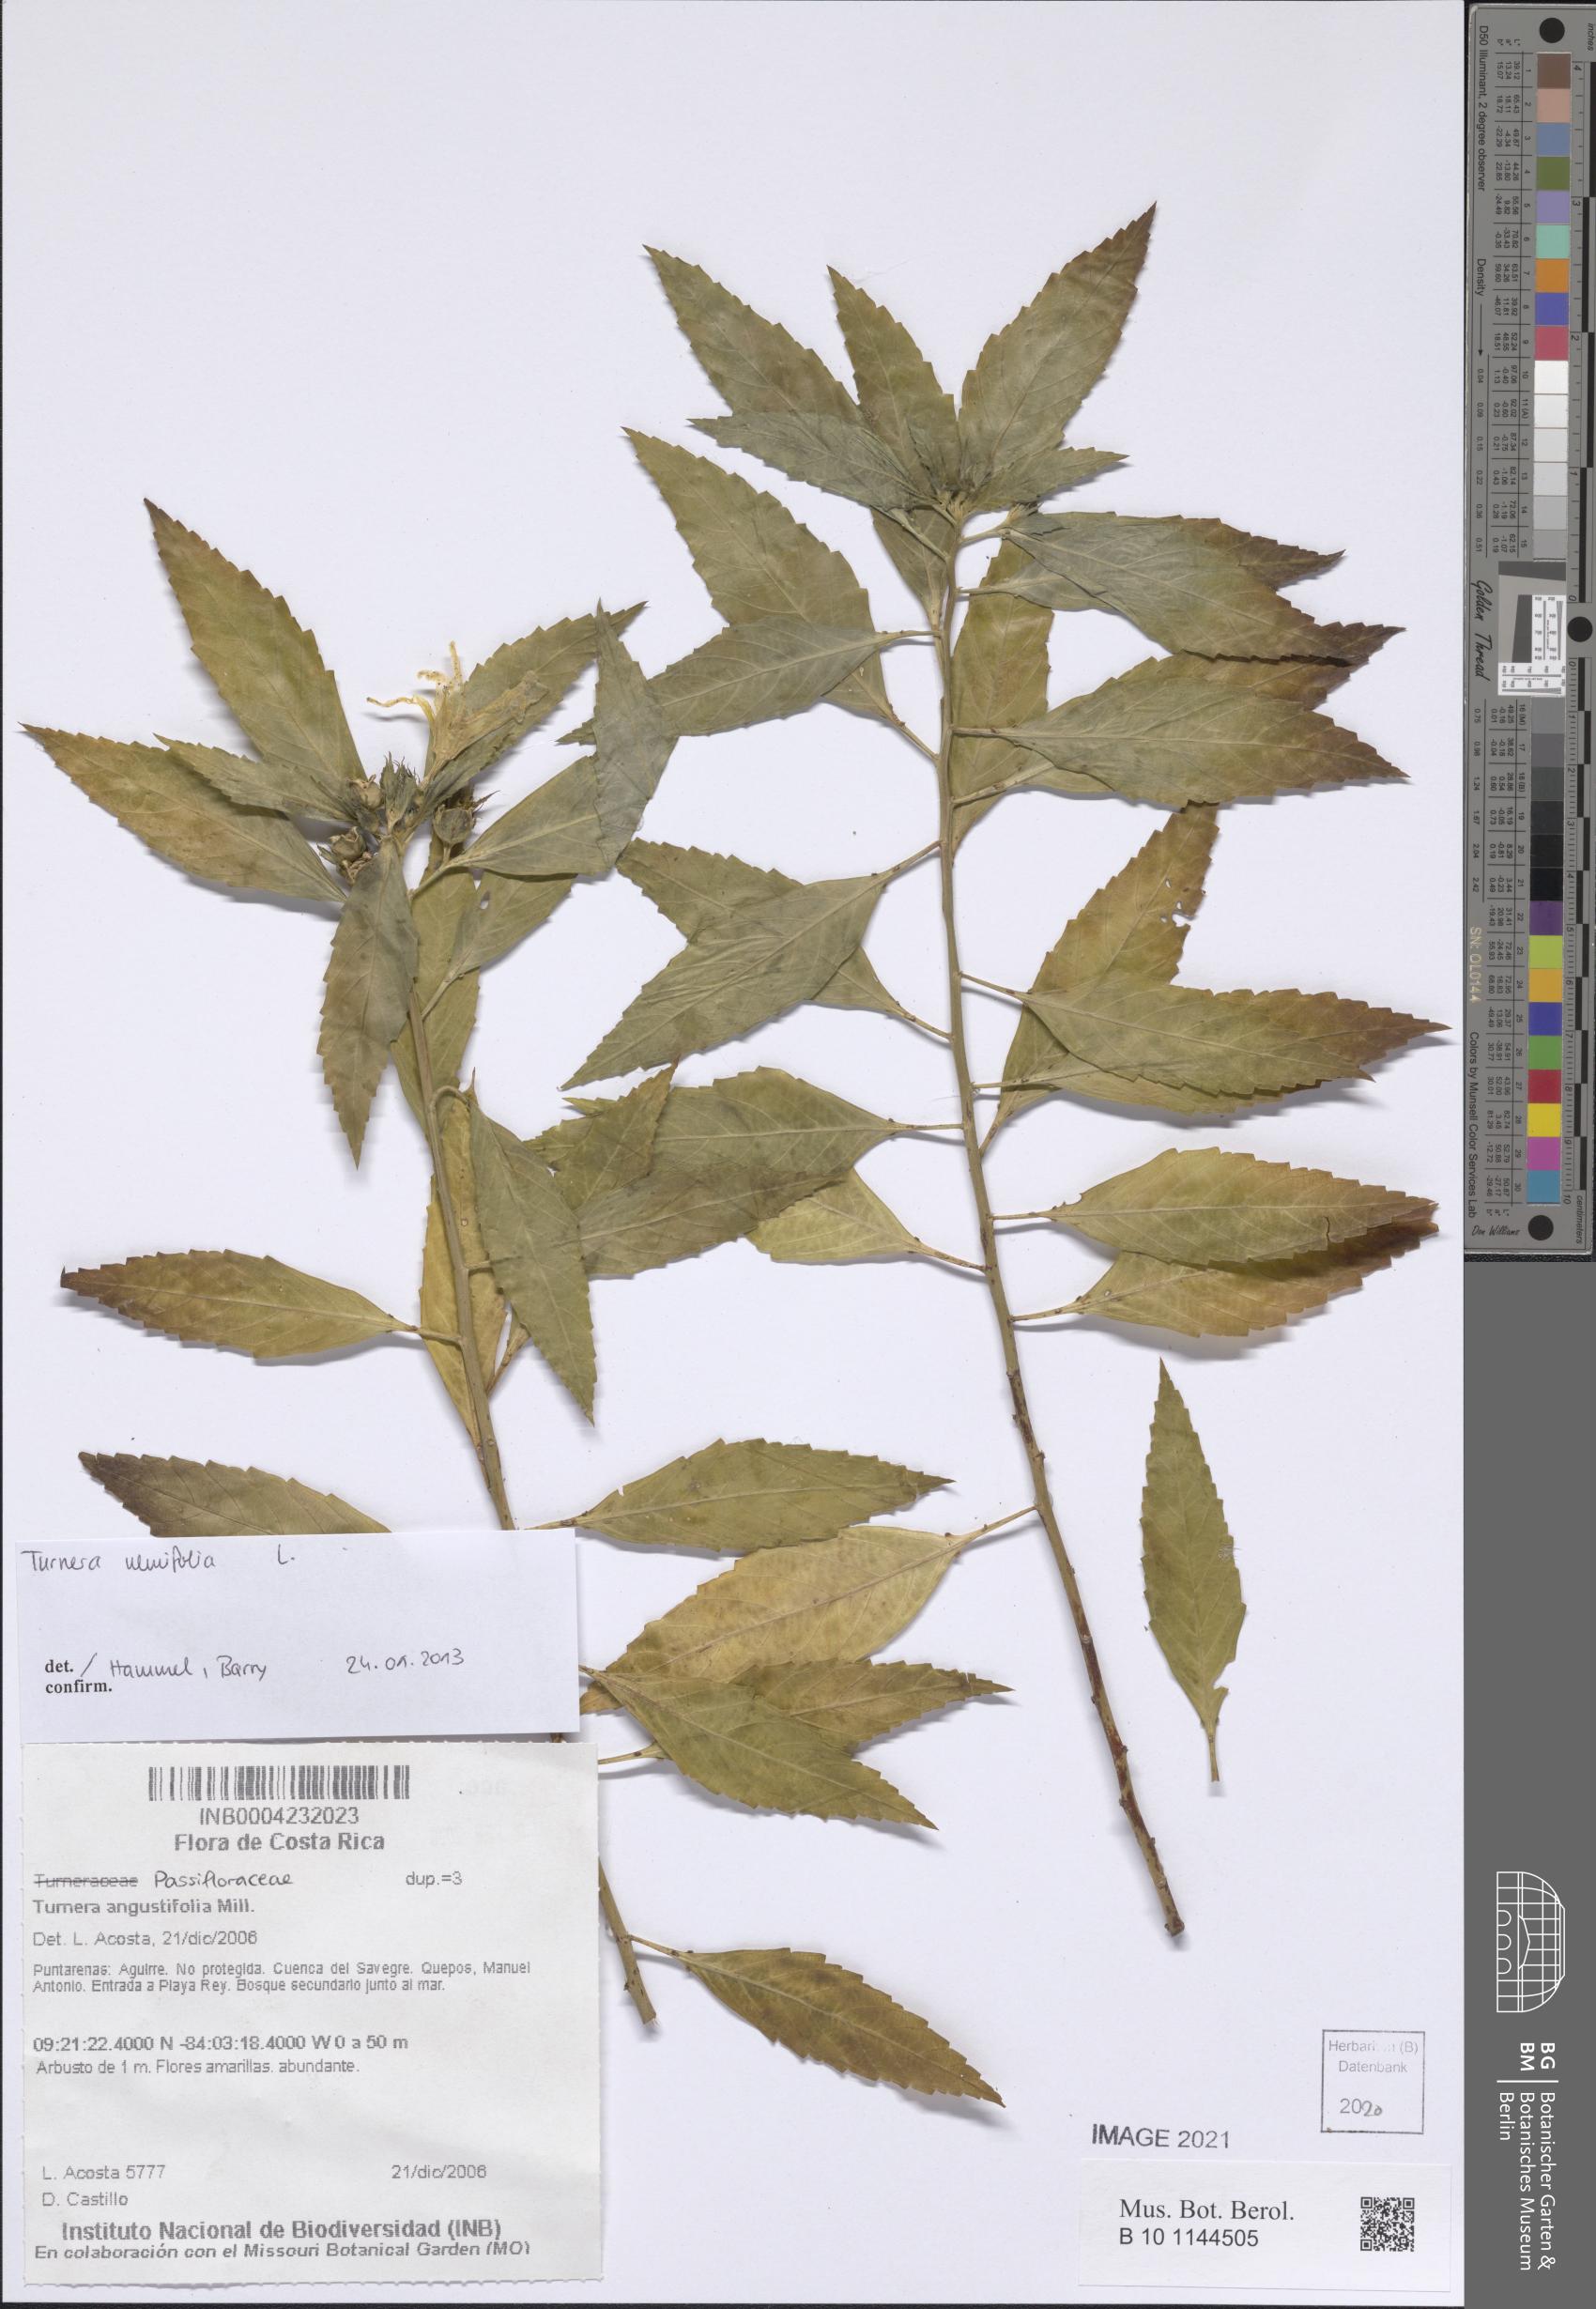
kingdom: Plantae
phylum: Tracheophyta
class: Magnoliopsida
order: Malpighiales
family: Turneraceae
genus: Turnera
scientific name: Turnera ulmifolia
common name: Ramgoat dashalong
